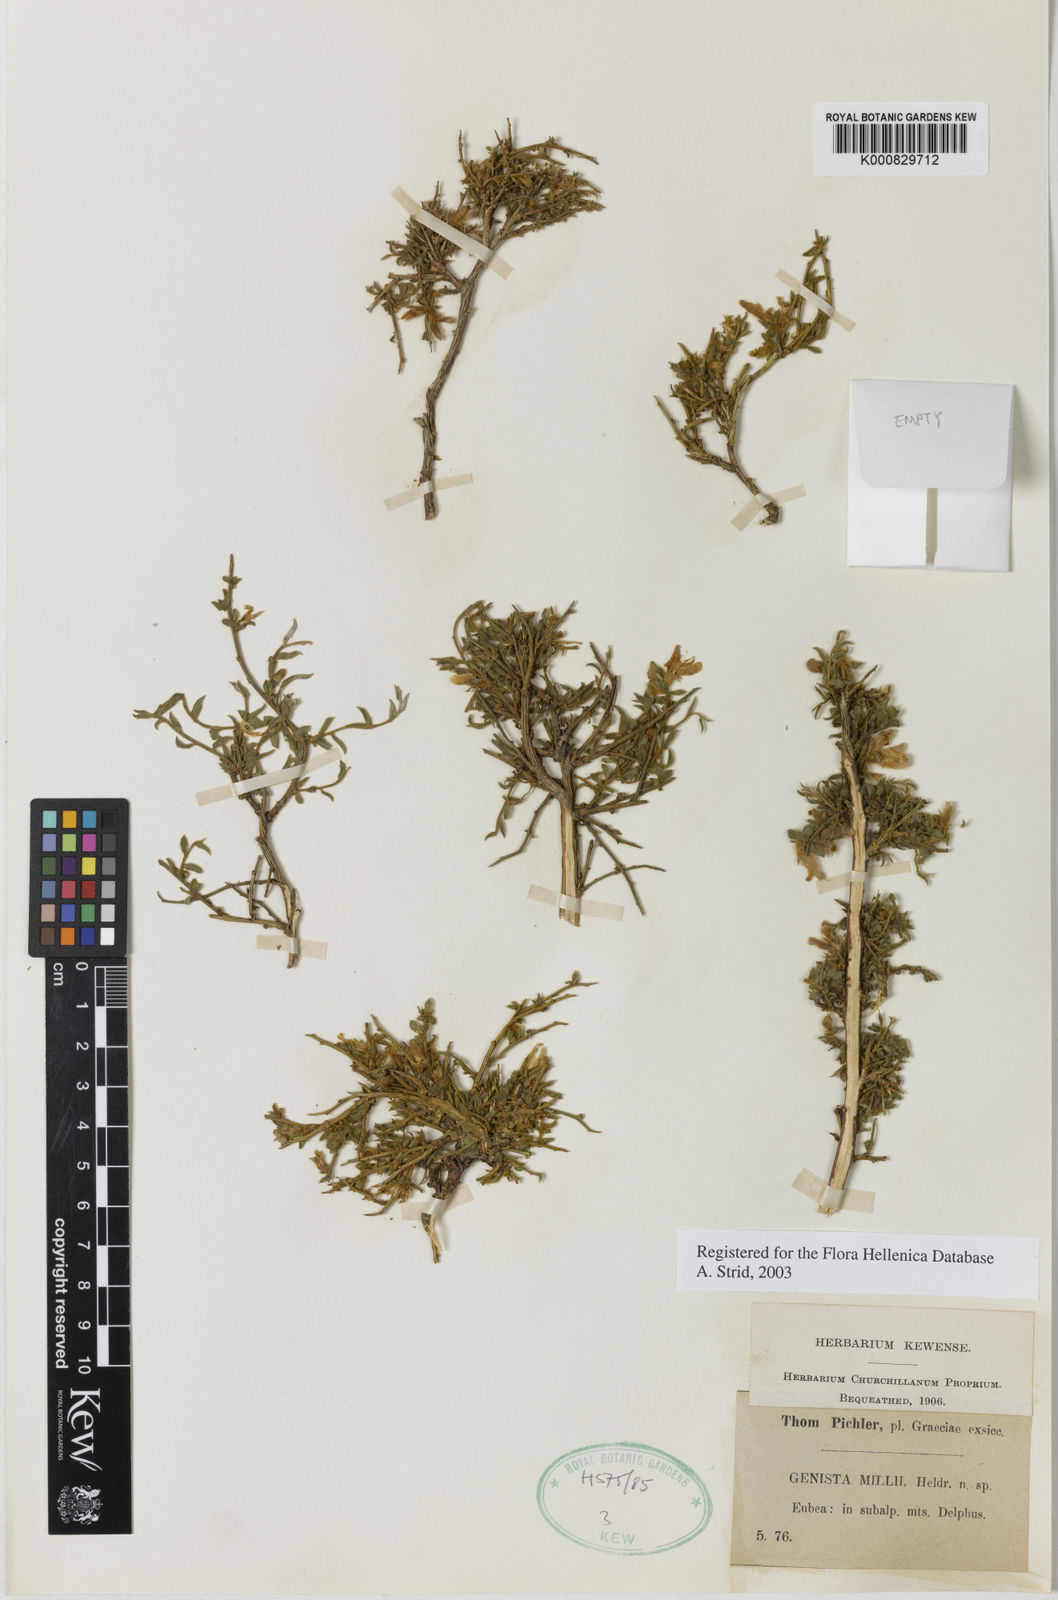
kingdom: Plantae
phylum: Tracheophyta
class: Magnoliopsida
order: Fabales
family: Fabaceae
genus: Genista
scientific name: Genista millii
